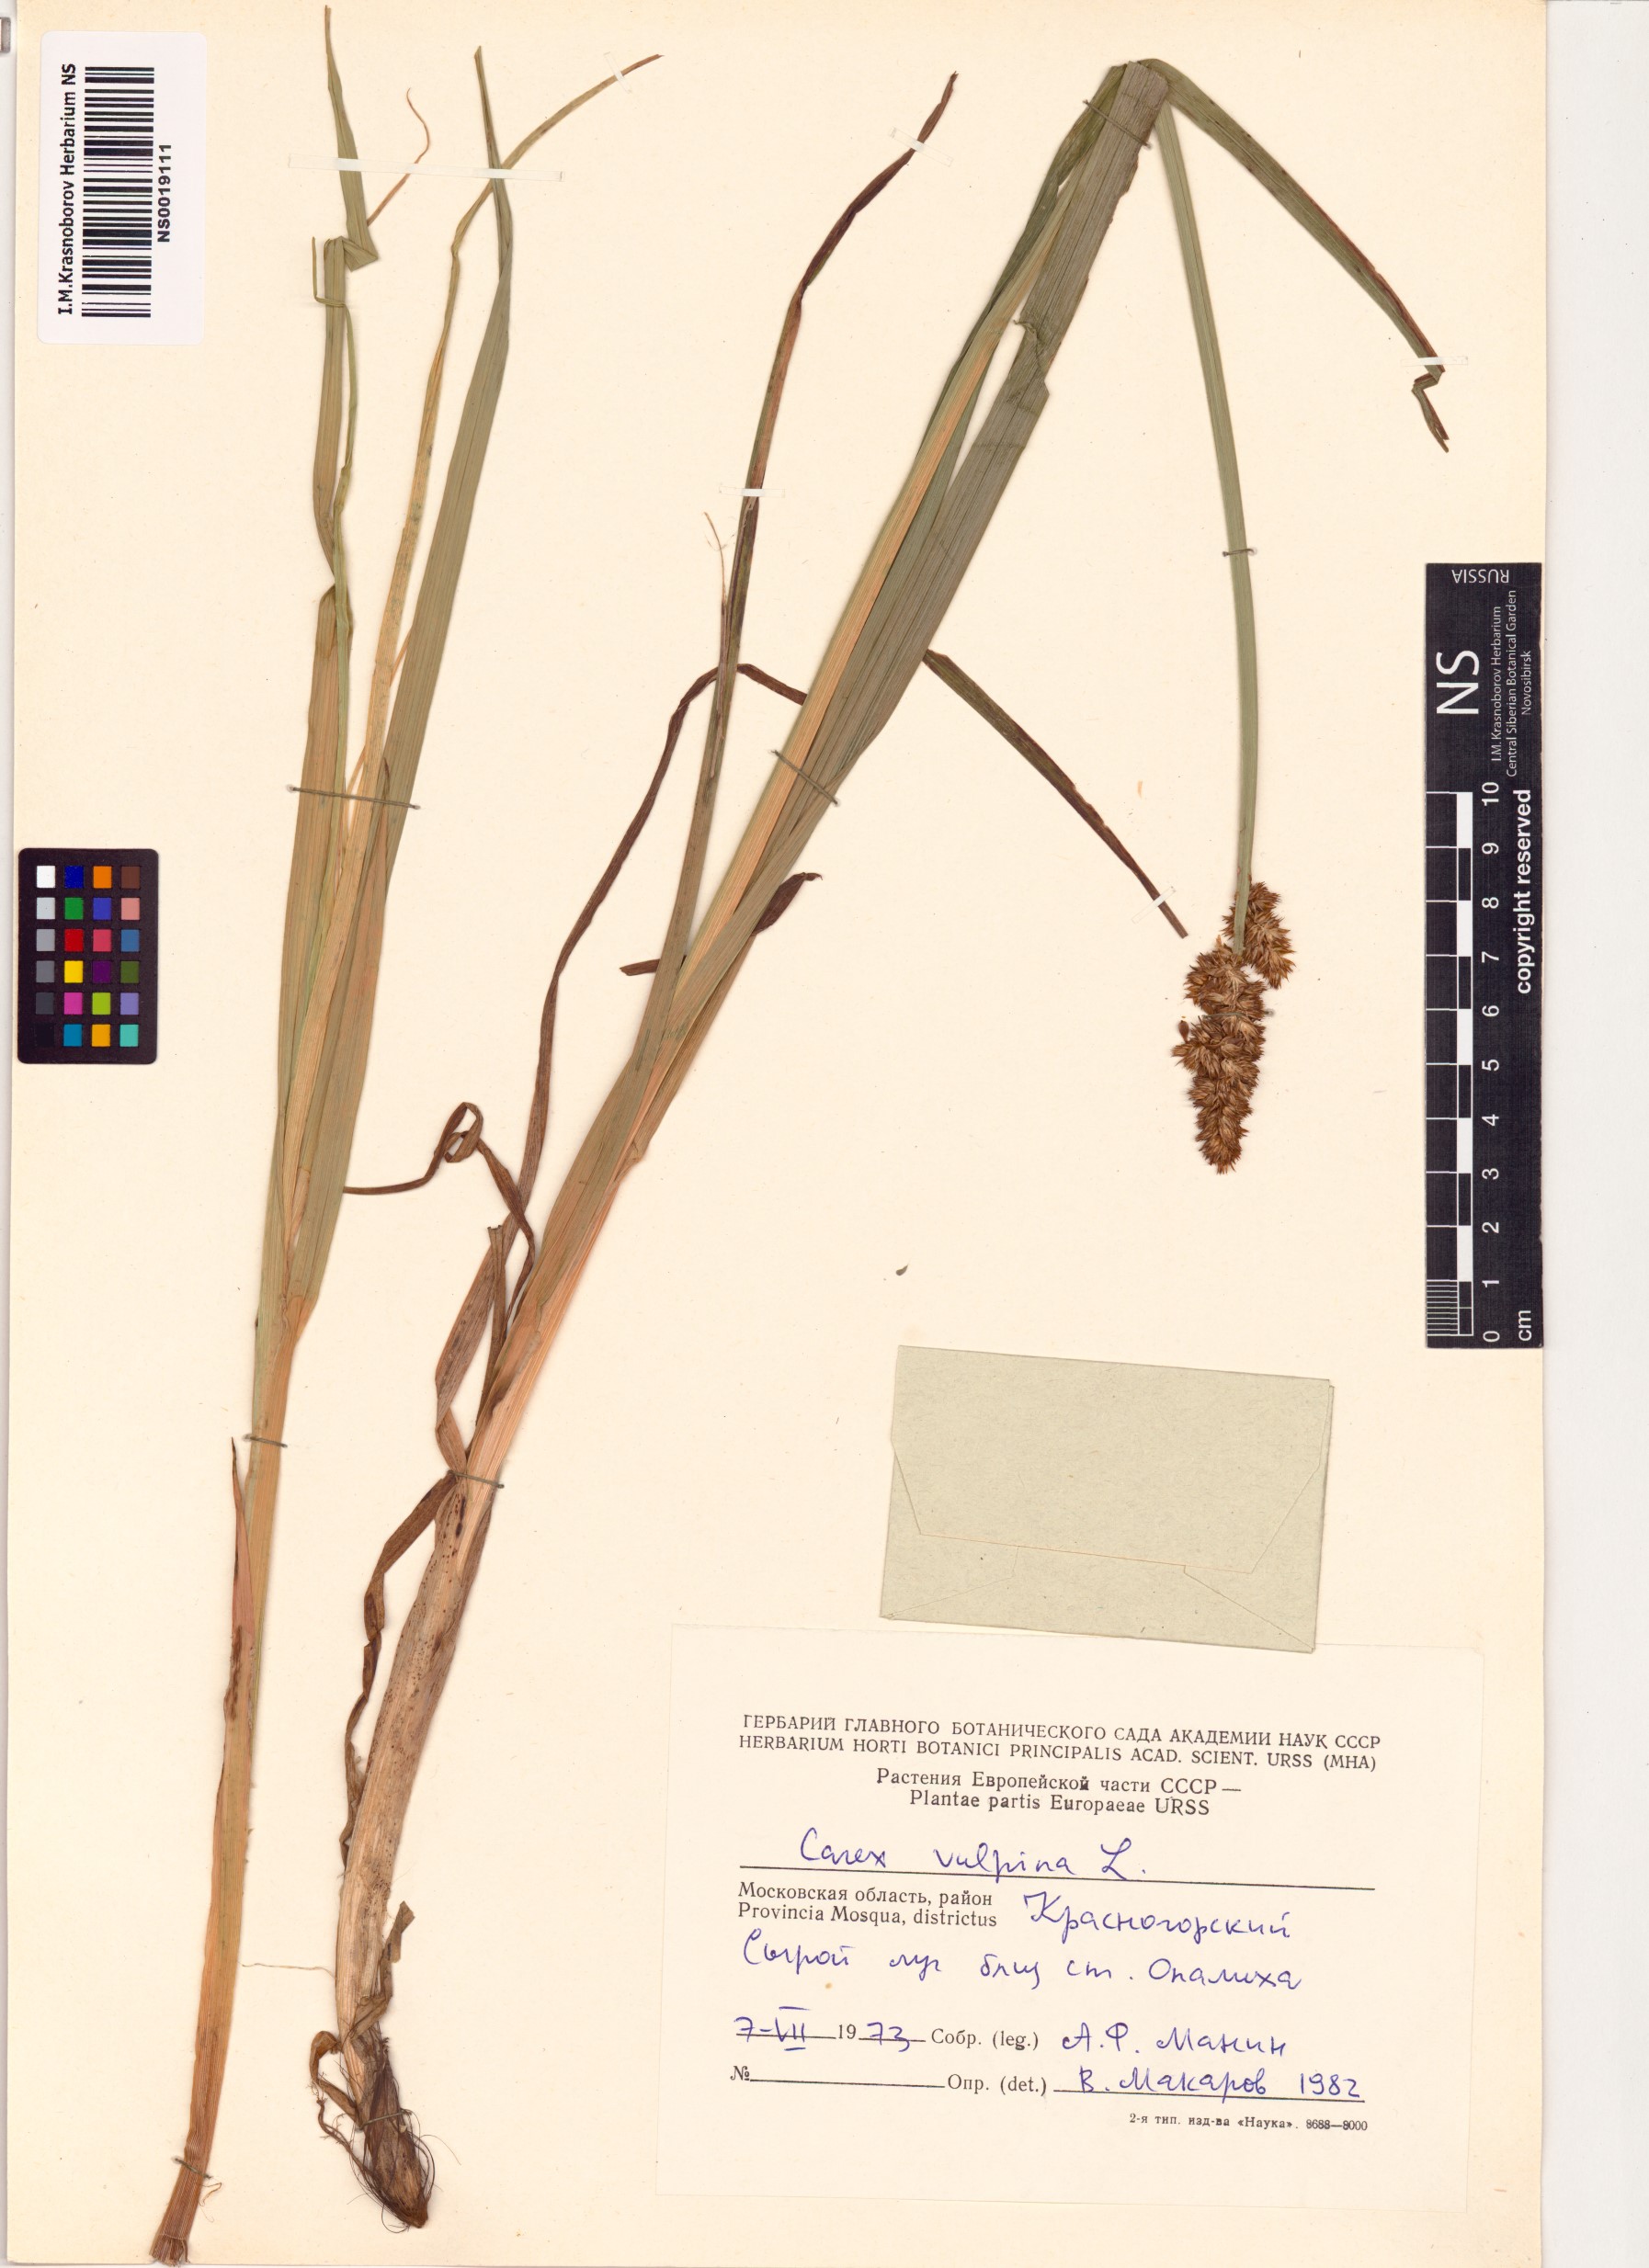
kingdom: Plantae
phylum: Tracheophyta
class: Liliopsida
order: Poales
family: Cyperaceae
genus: Carex
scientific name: Carex vulpina
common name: True fox-sedge
